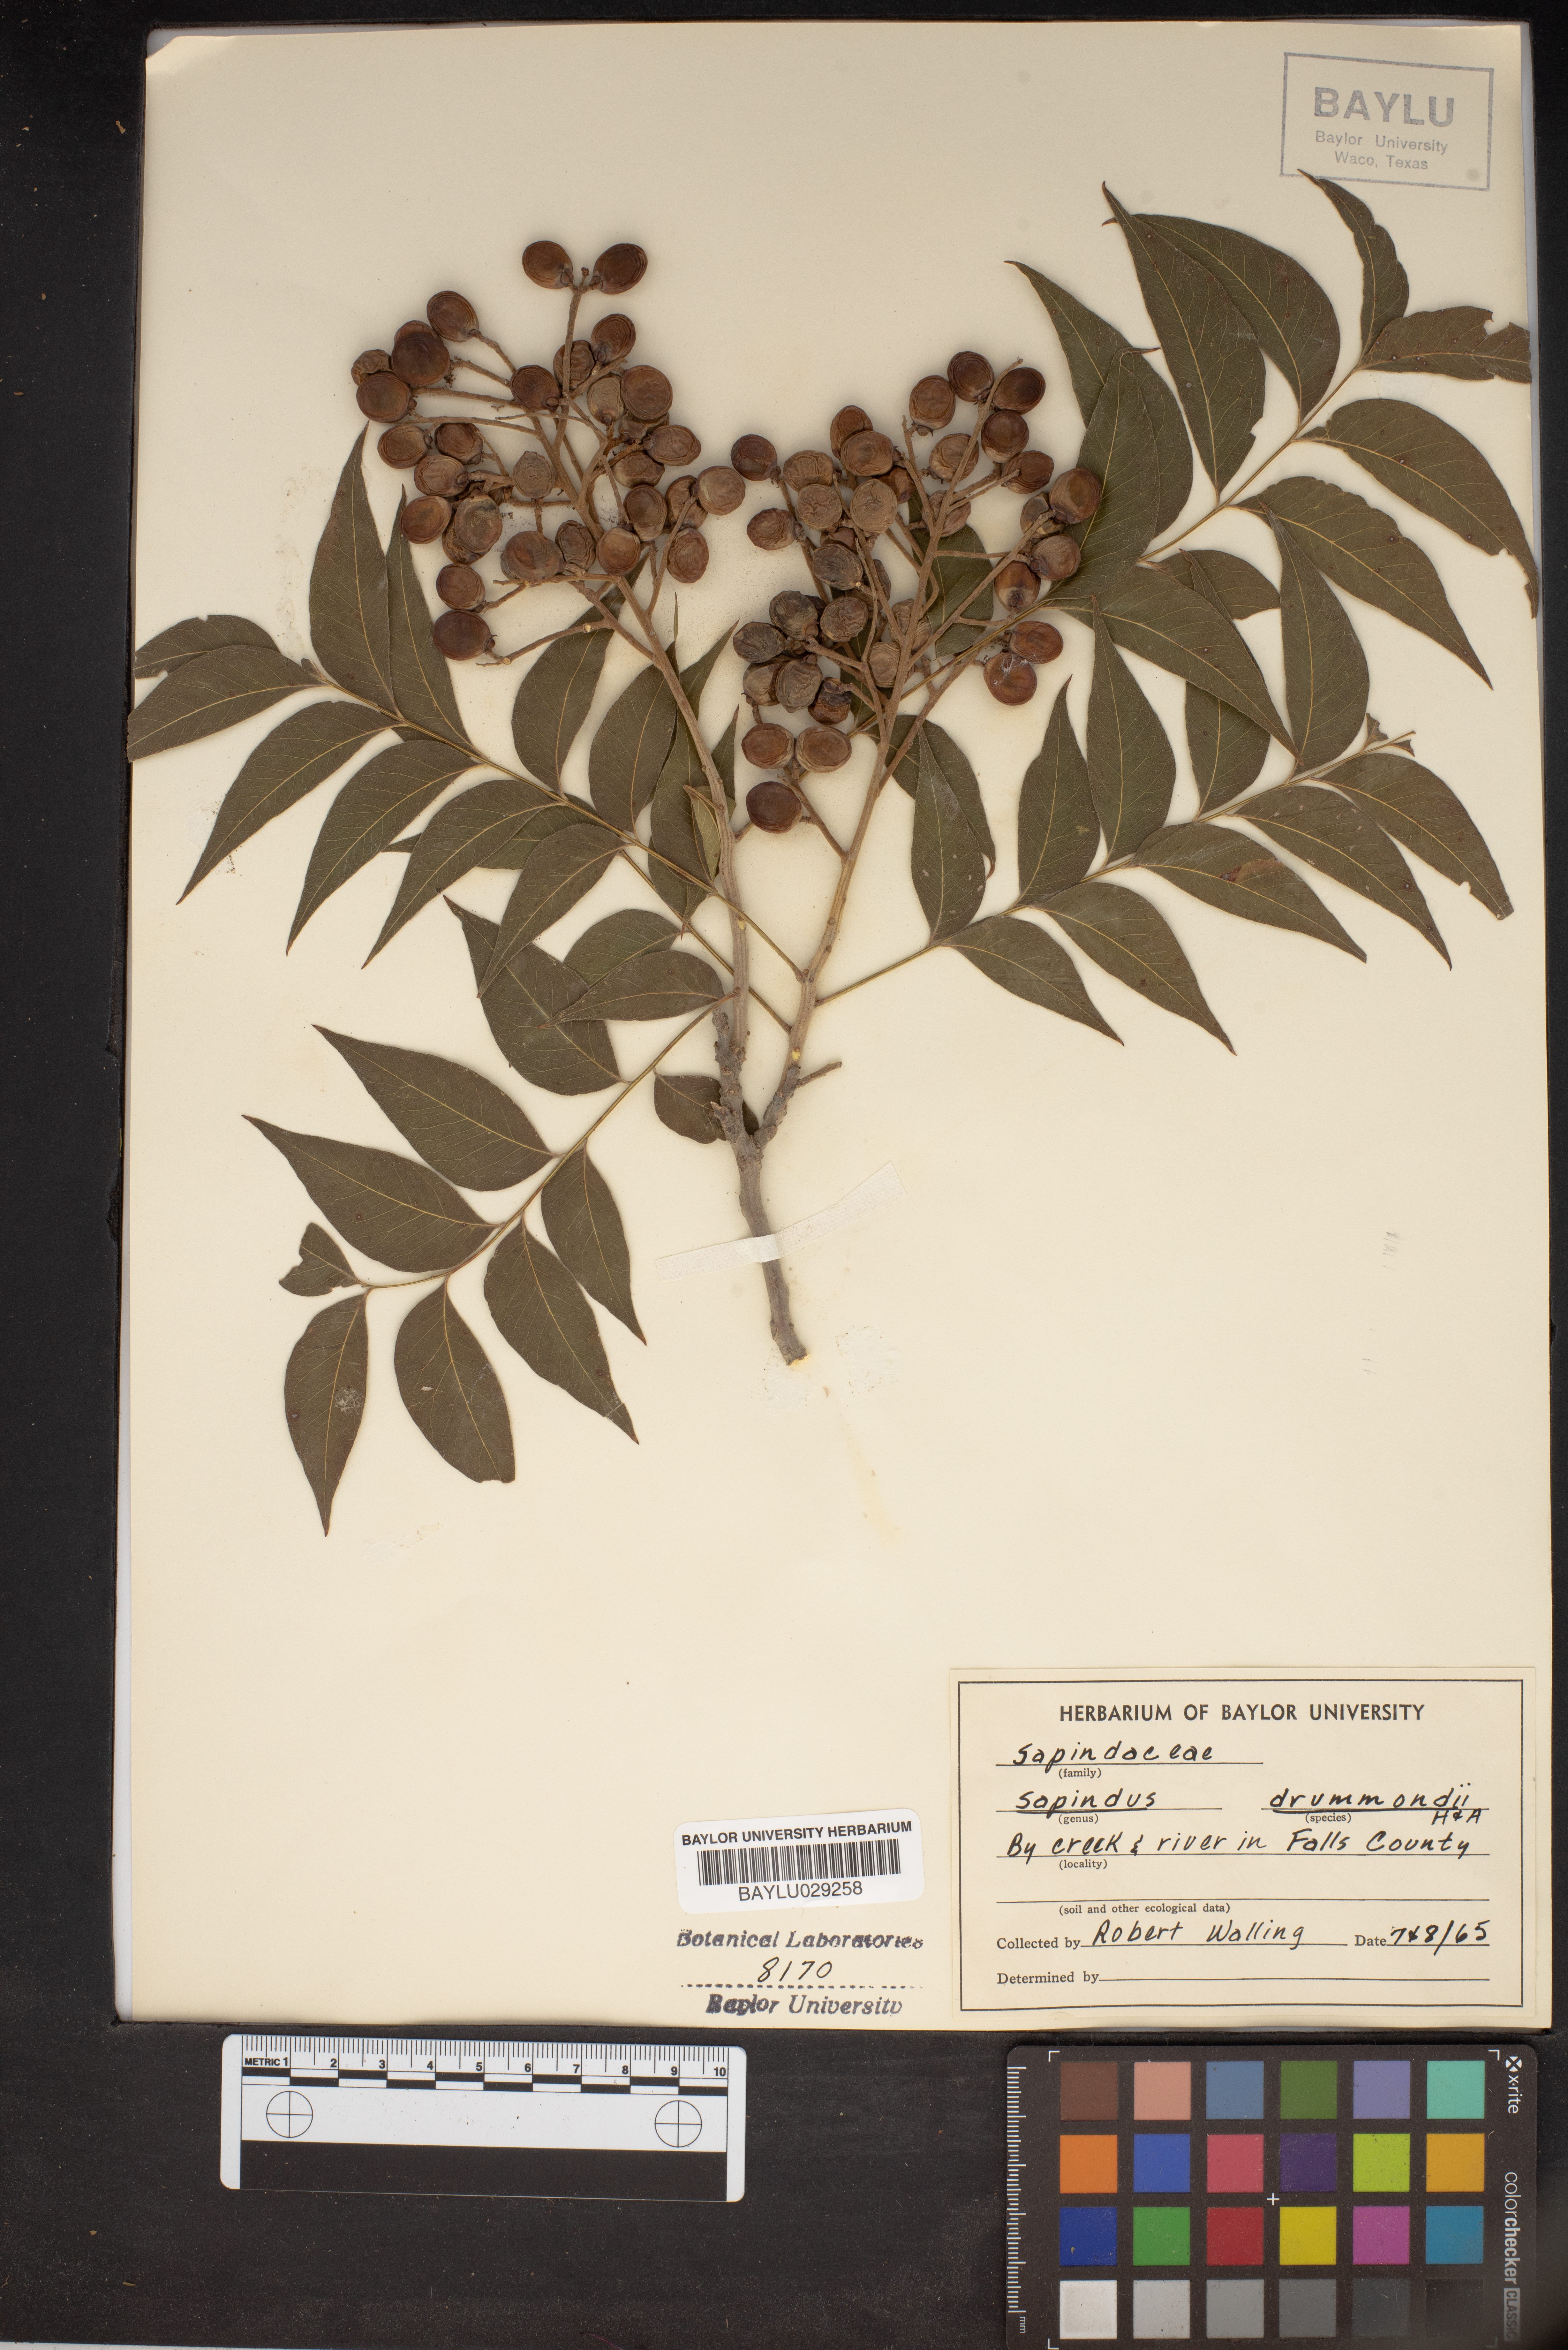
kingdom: Plantae
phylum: Tracheophyta
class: Magnoliopsida
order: Sapindales
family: Sapindaceae
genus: Sapindus
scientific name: Sapindus drummondii
